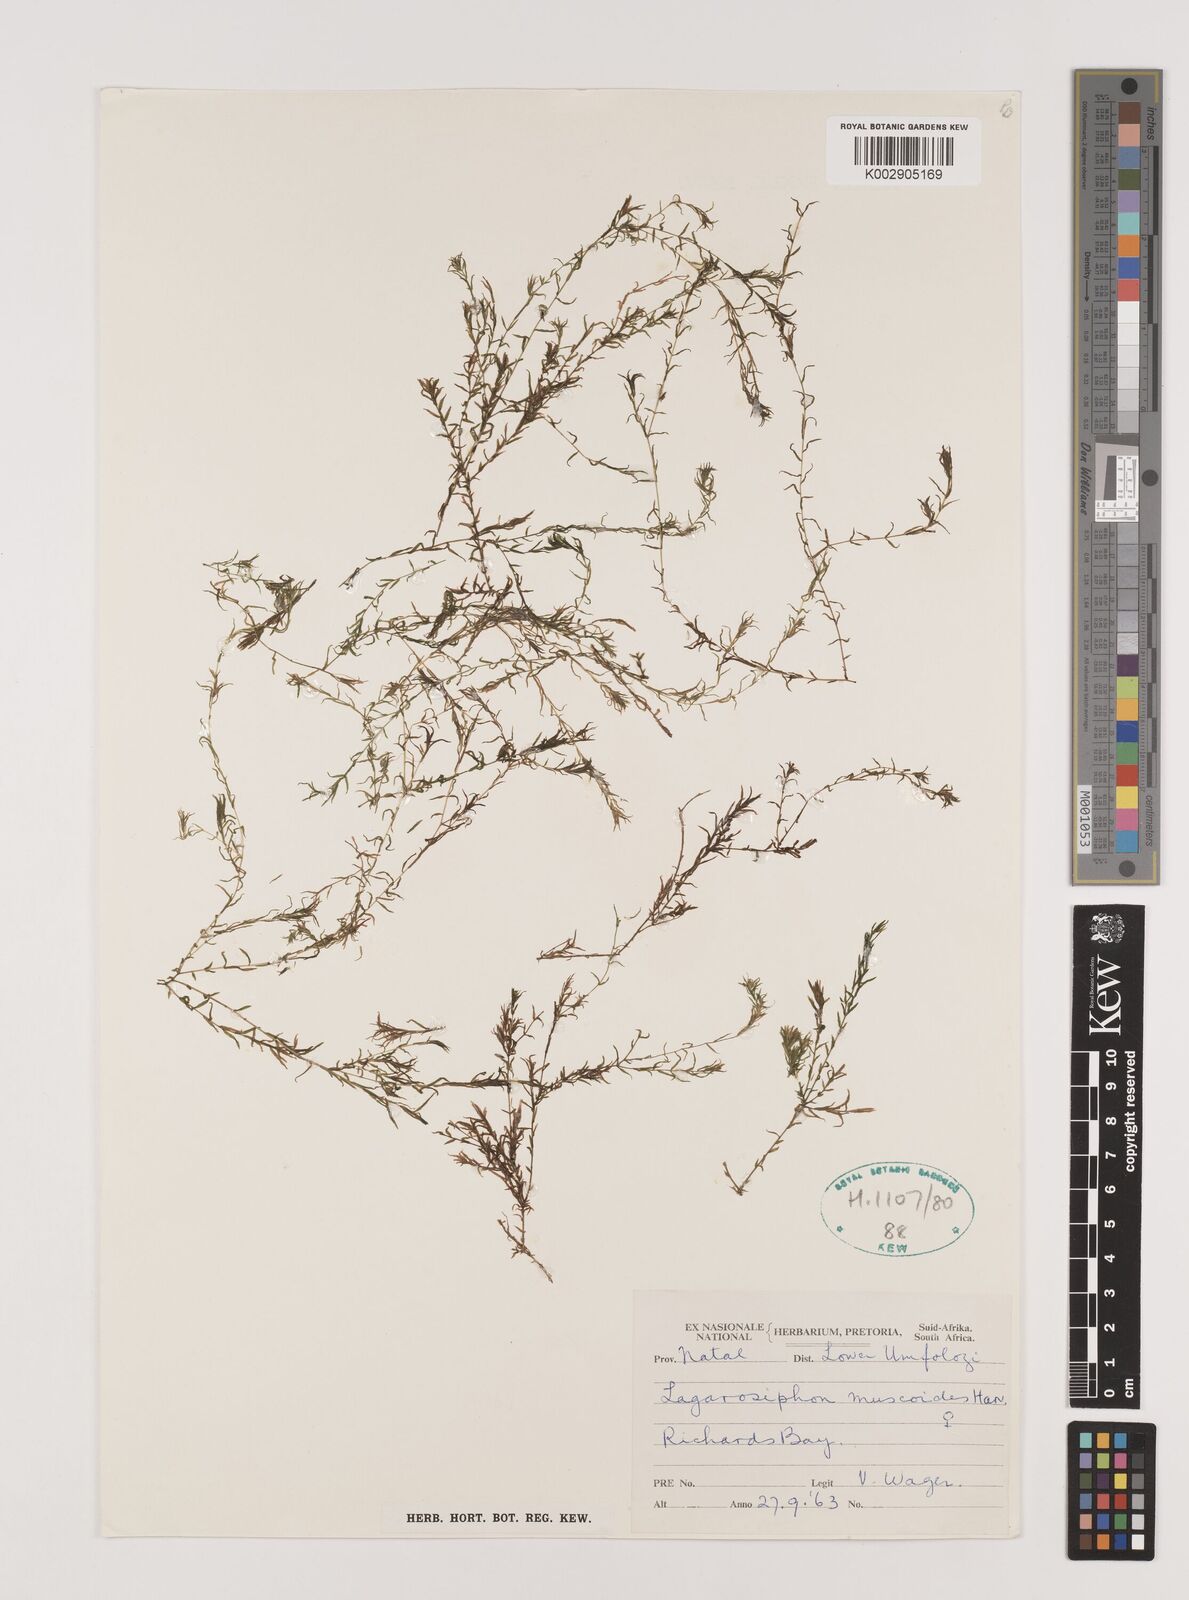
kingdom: Plantae
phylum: Tracheophyta
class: Liliopsida
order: Alismatales
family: Hydrocharitaceae
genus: Lagarosiphon
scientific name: Lagarosiphon muscoides
